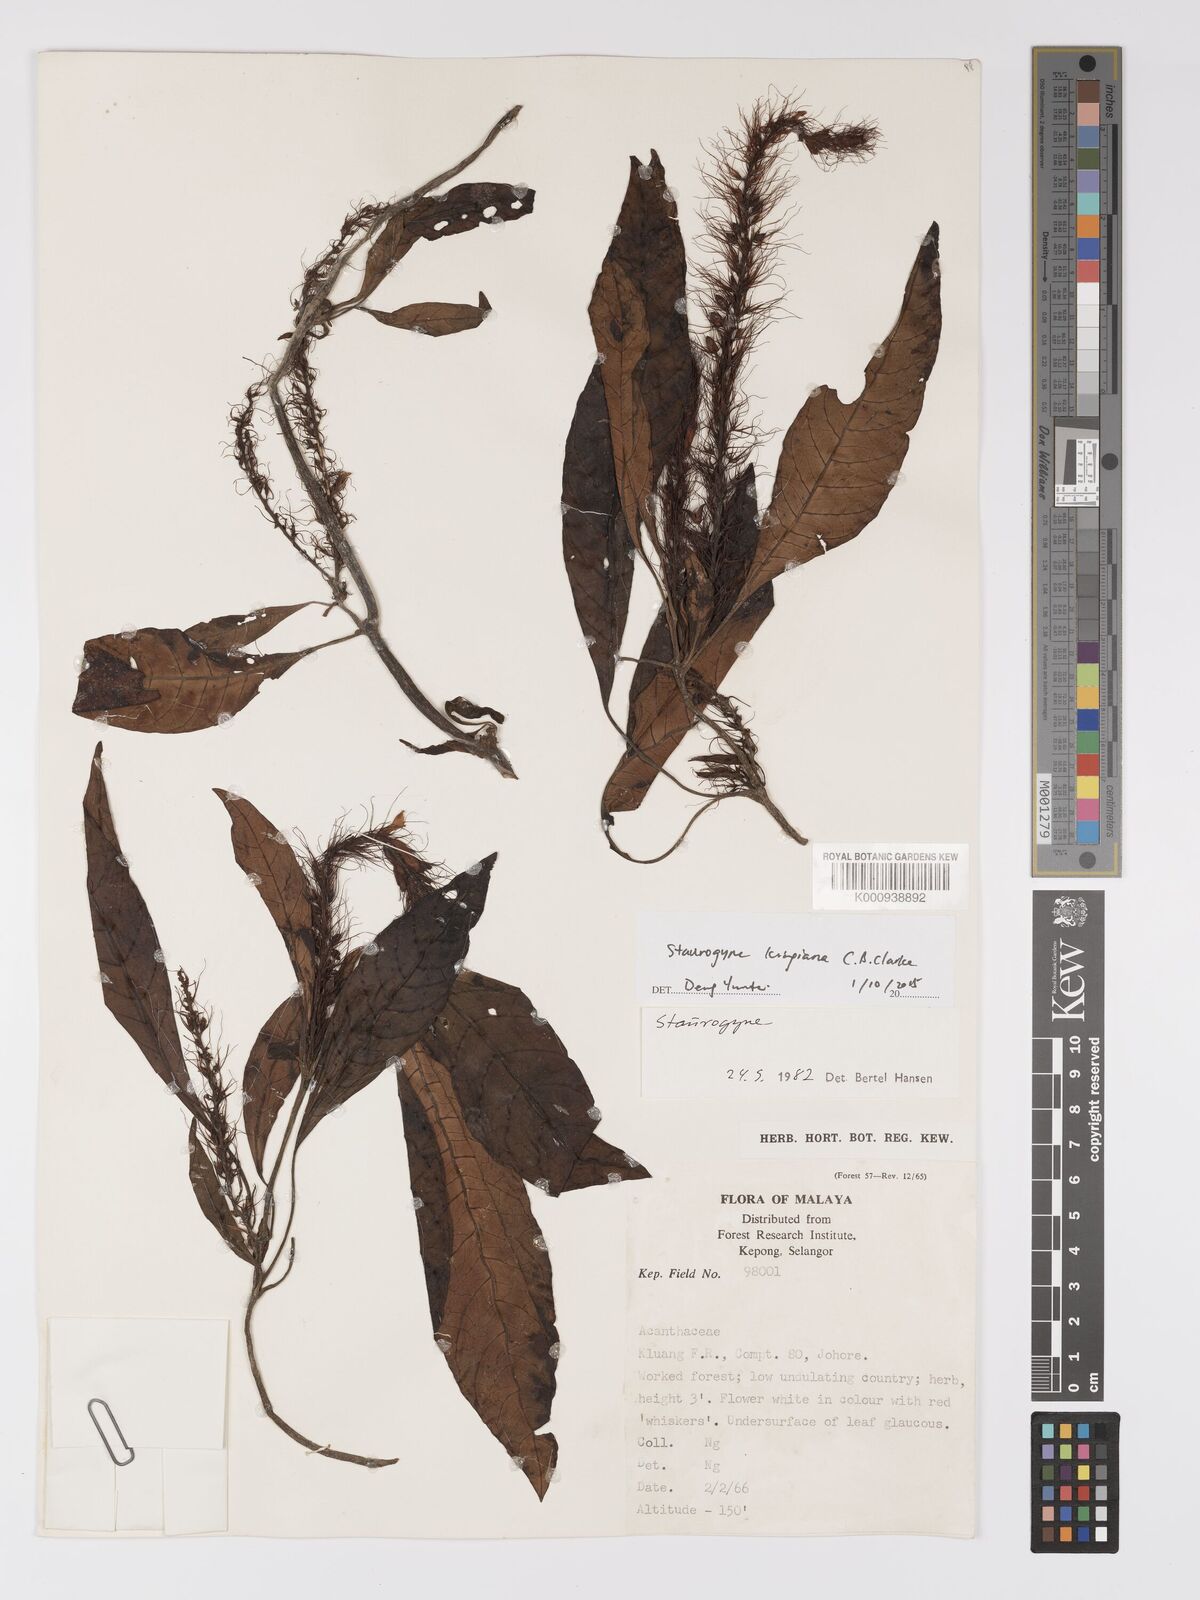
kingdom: Plantae
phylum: Tracheophyta
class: Magnoliopsida
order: Lamiales
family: Acanthaceae
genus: Staurogyne
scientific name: Staurogyne kingiana
